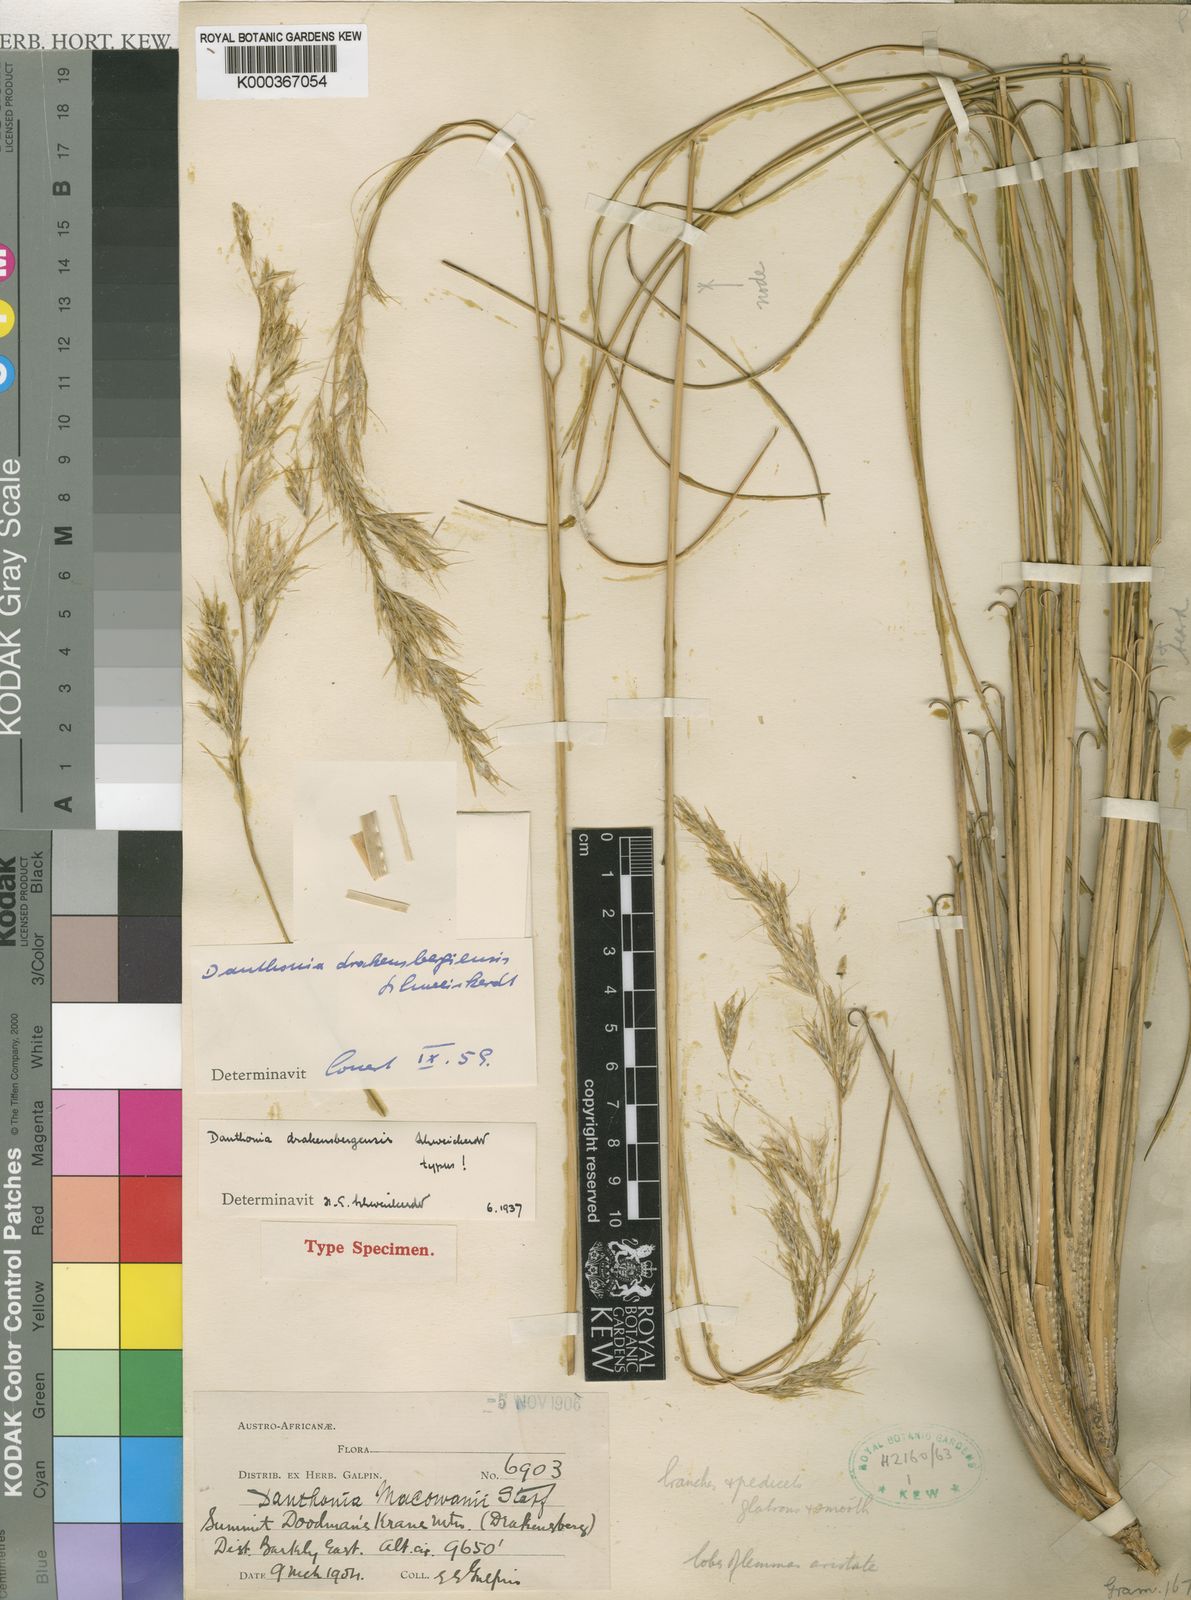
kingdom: Plantae
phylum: Tracheophyta
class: Liliopsida
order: Poales
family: Poaceae
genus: Rytidosperma
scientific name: Rytidosperma
